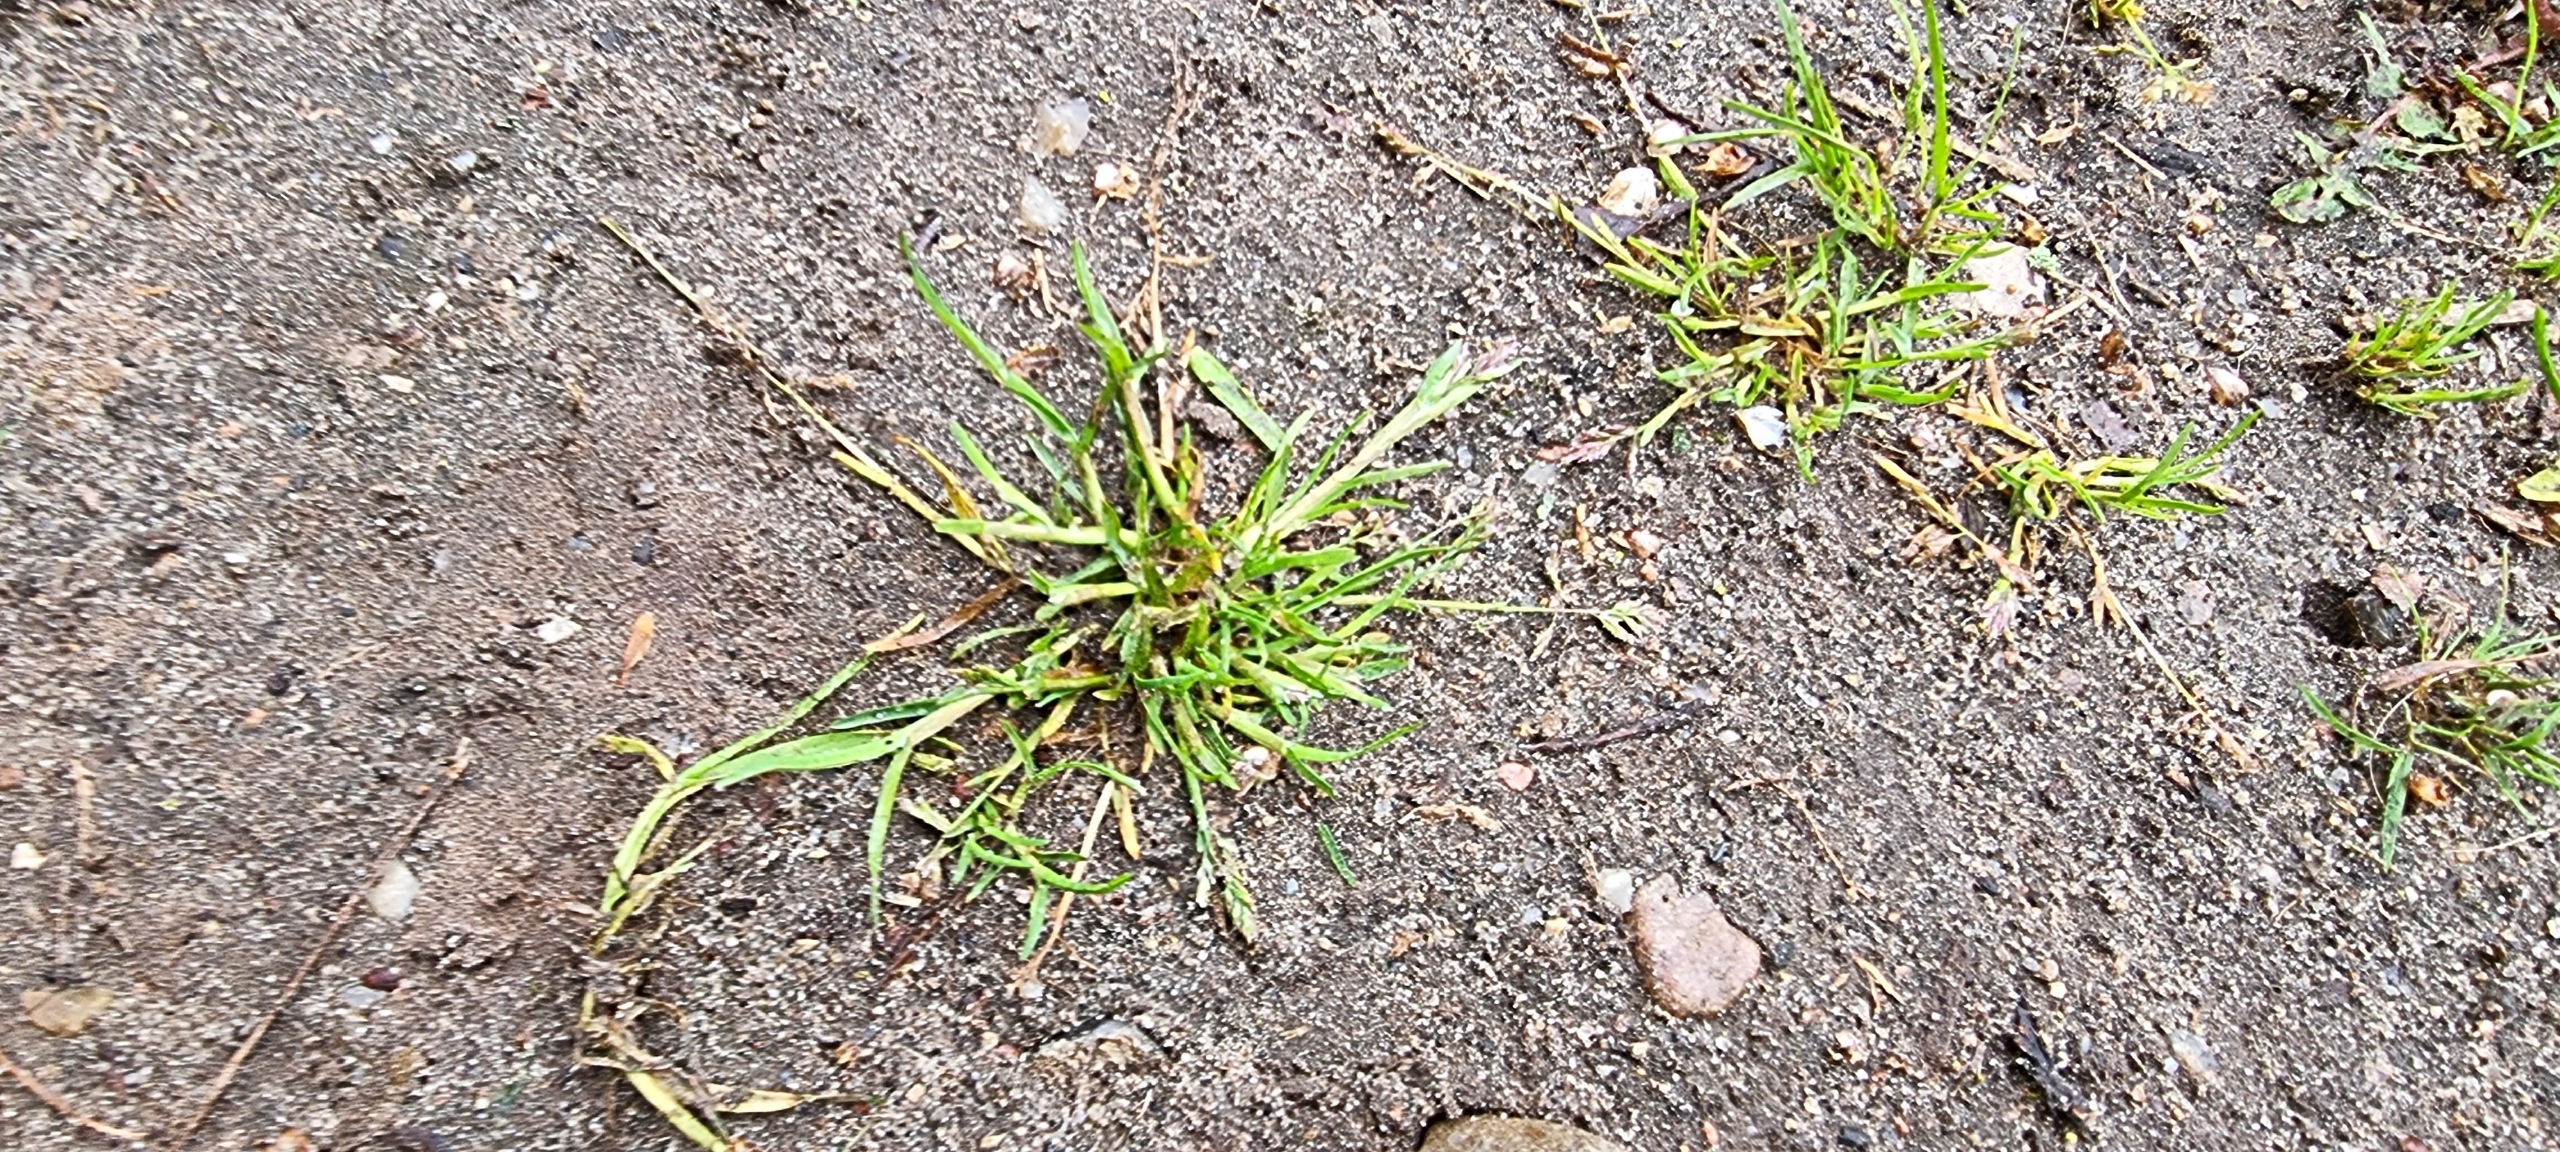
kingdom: Plantae
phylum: Tracheophyta
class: Liliopsida
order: Poales
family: Poaceae
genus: Poa
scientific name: Poa annua
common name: Enårig rapgræs
